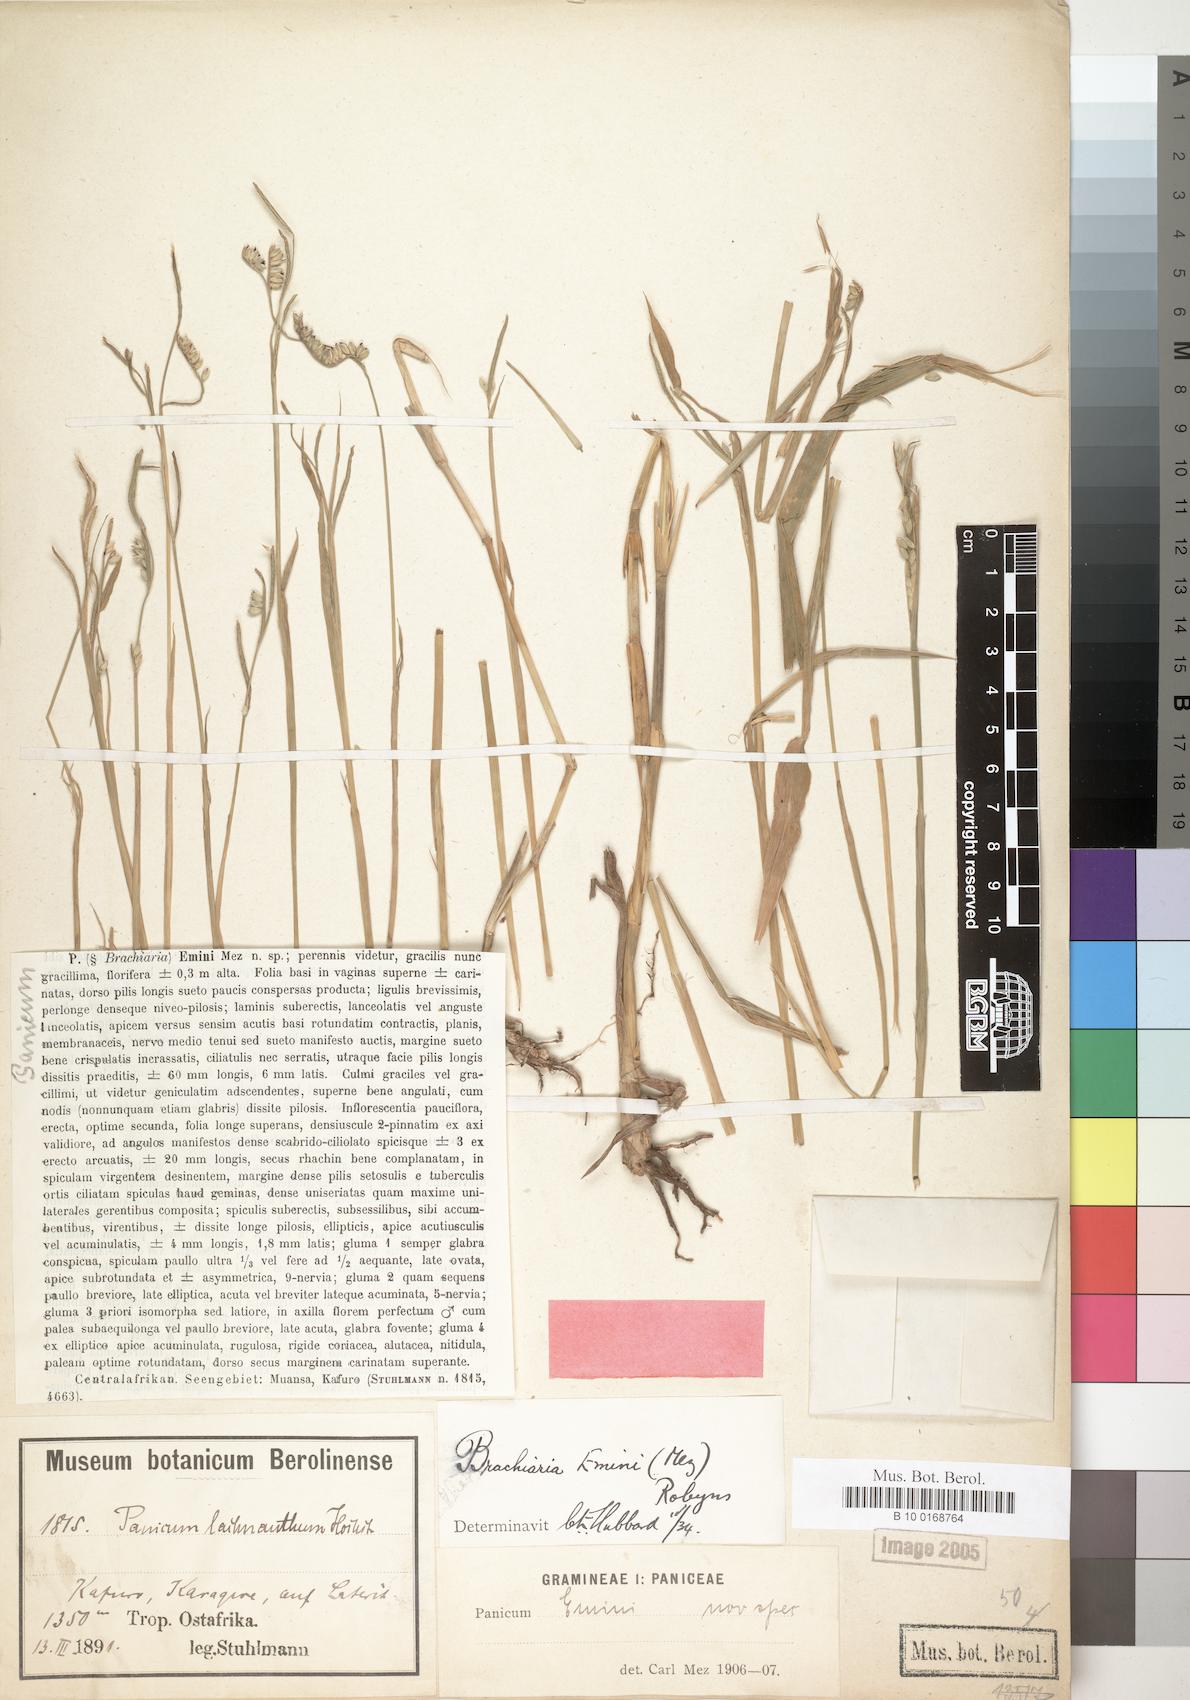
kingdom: Plantae
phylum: Tracheophyta
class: Liliopsida
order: Poales
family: Poaceae
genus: Urochloa
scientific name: Urochloa eminii
